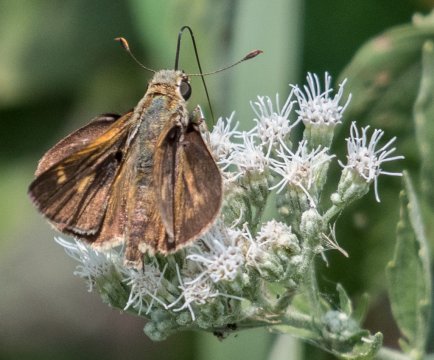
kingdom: Animalia
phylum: Arthropoda
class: Insecta
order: Lepidoptera
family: Hesperiidae
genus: Wallengrenia
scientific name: Wallengrenia otho
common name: Southern Broken-Dash
